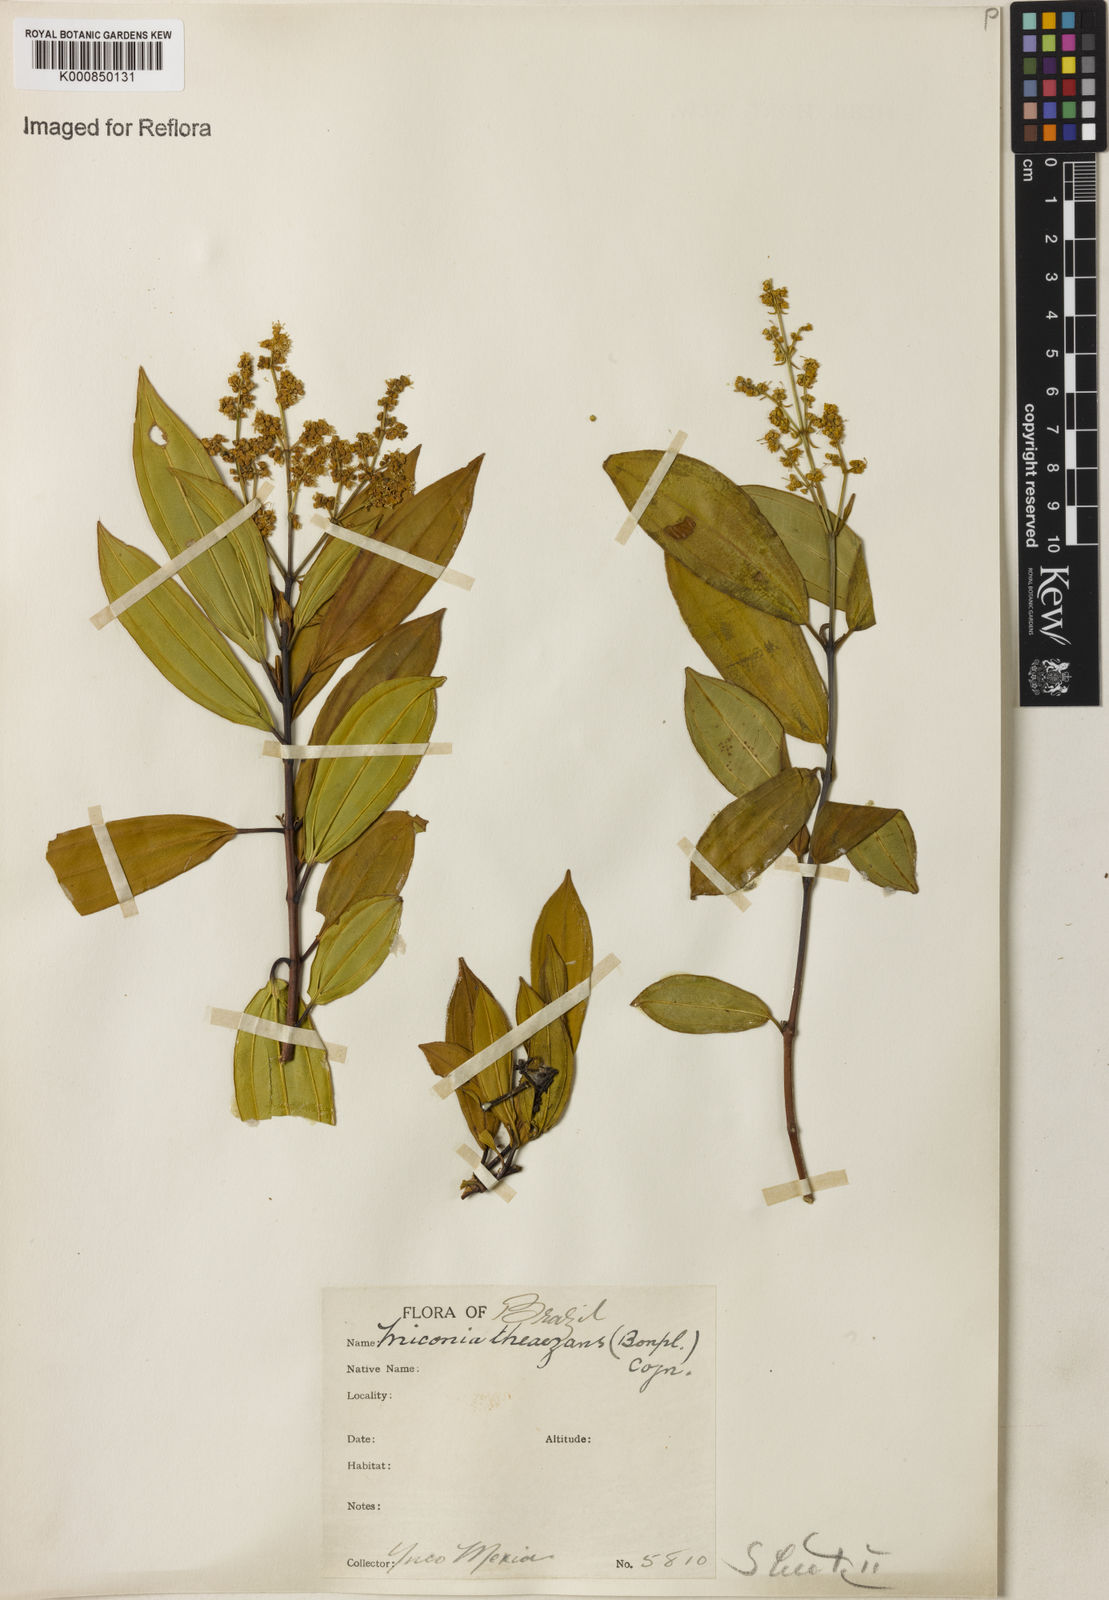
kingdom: Plantae
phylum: Tracheophyta
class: Magnoliopsida
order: Myrtales
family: Melastomataceae
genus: Miconia
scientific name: Miconia
